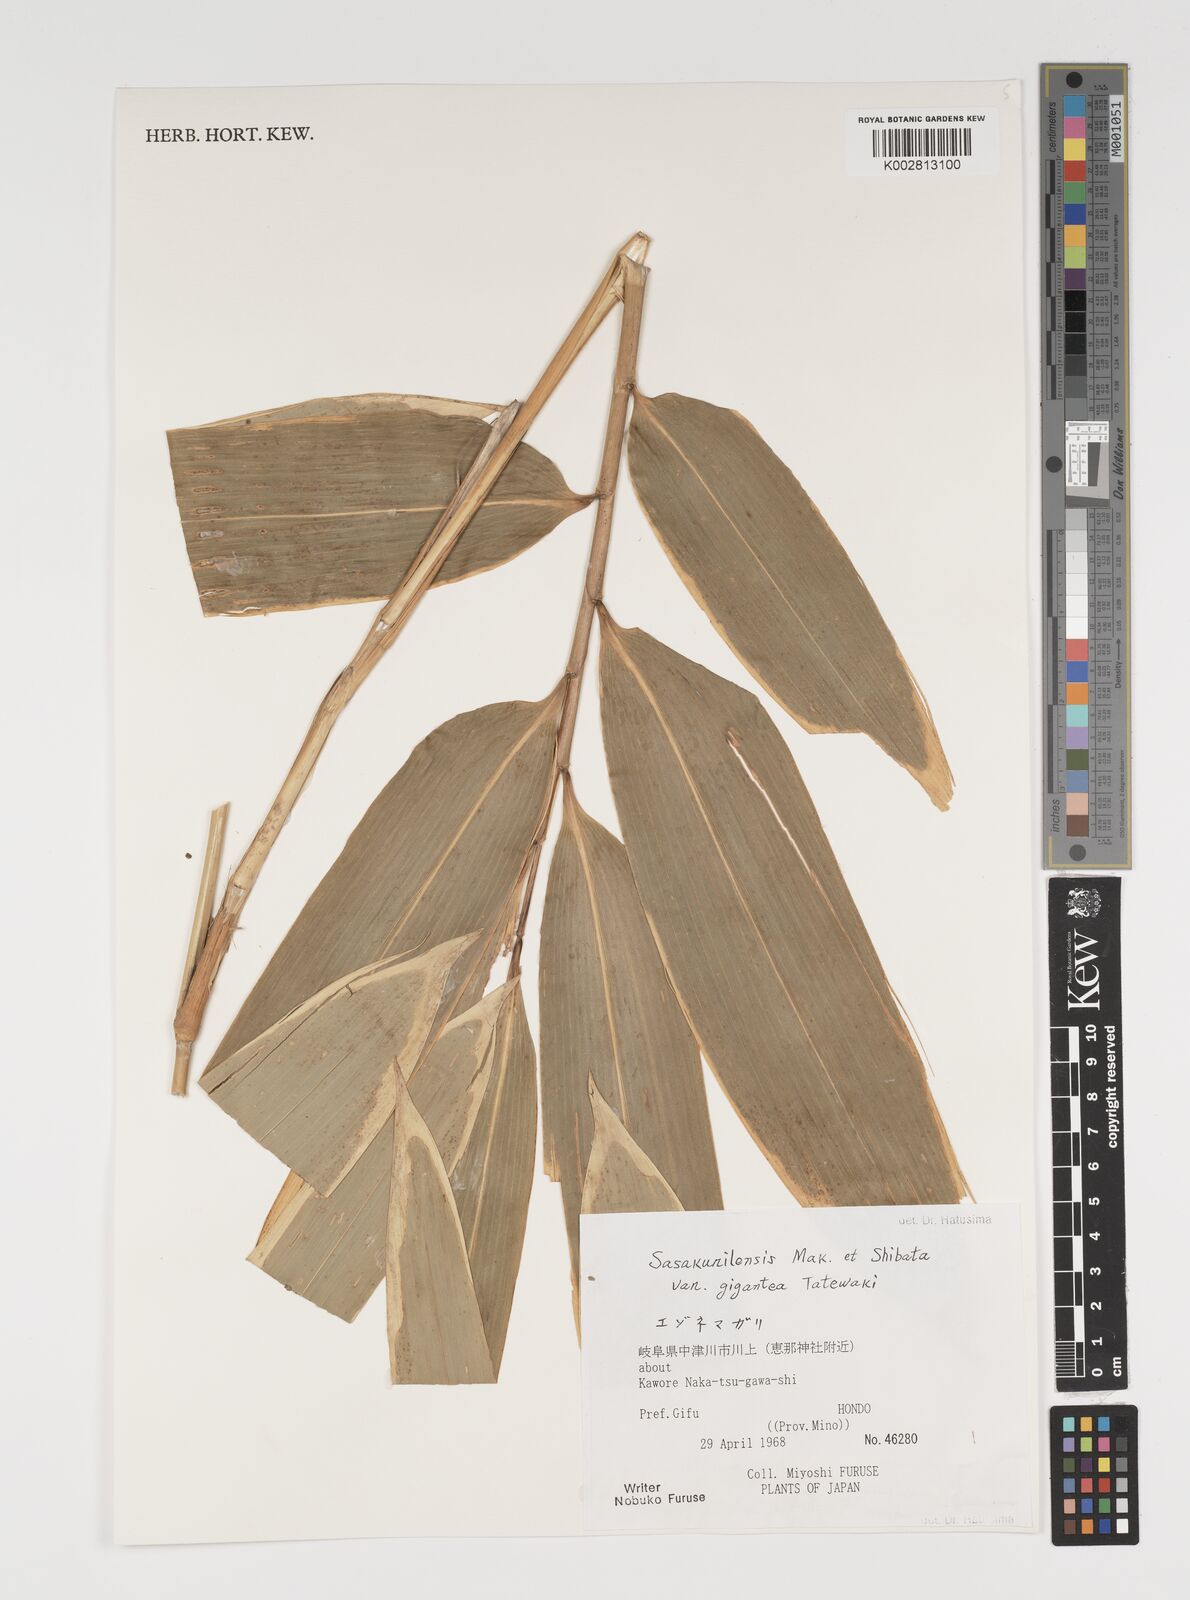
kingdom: Plantae
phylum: Tracheophyta
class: Liliopsida
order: Poales
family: Poaceae
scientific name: Poaceae
